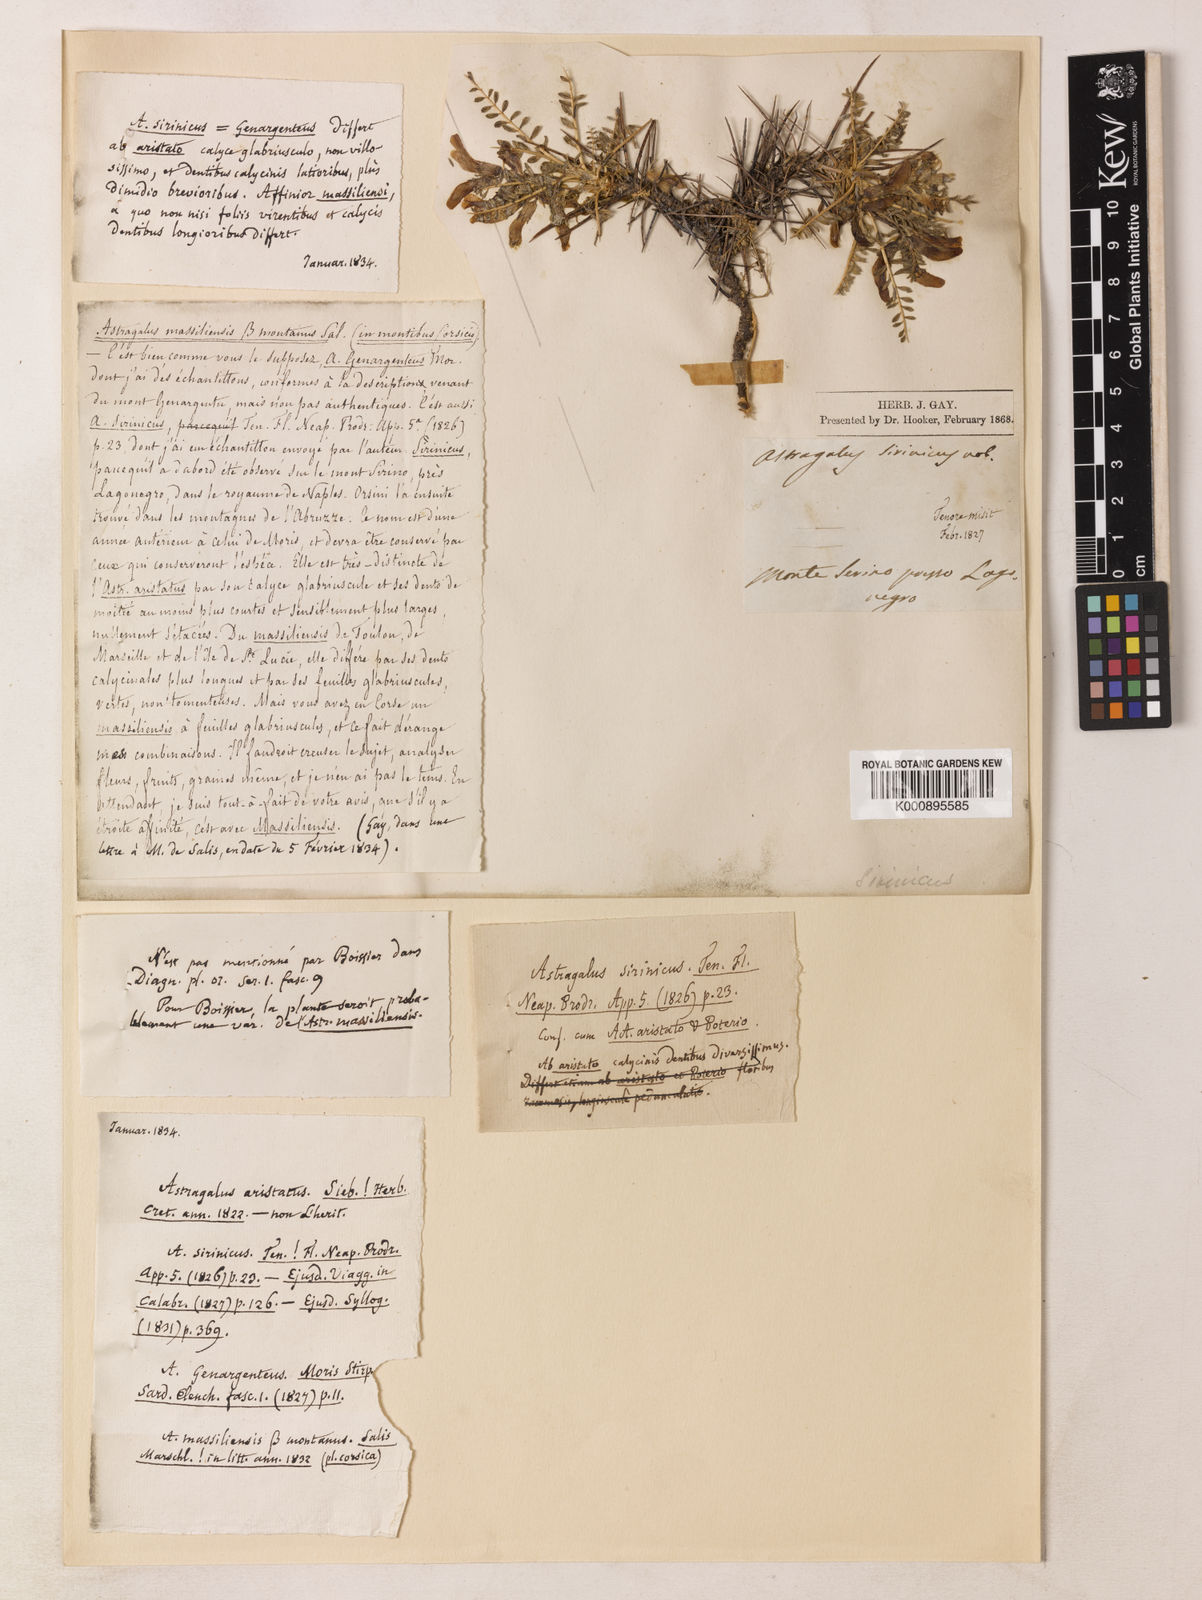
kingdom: Plantae
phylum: Tracheophyta
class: Magnoliopsida
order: Fabales
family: Fabaceae
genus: Astragalus
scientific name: Astragalus sirinicus
